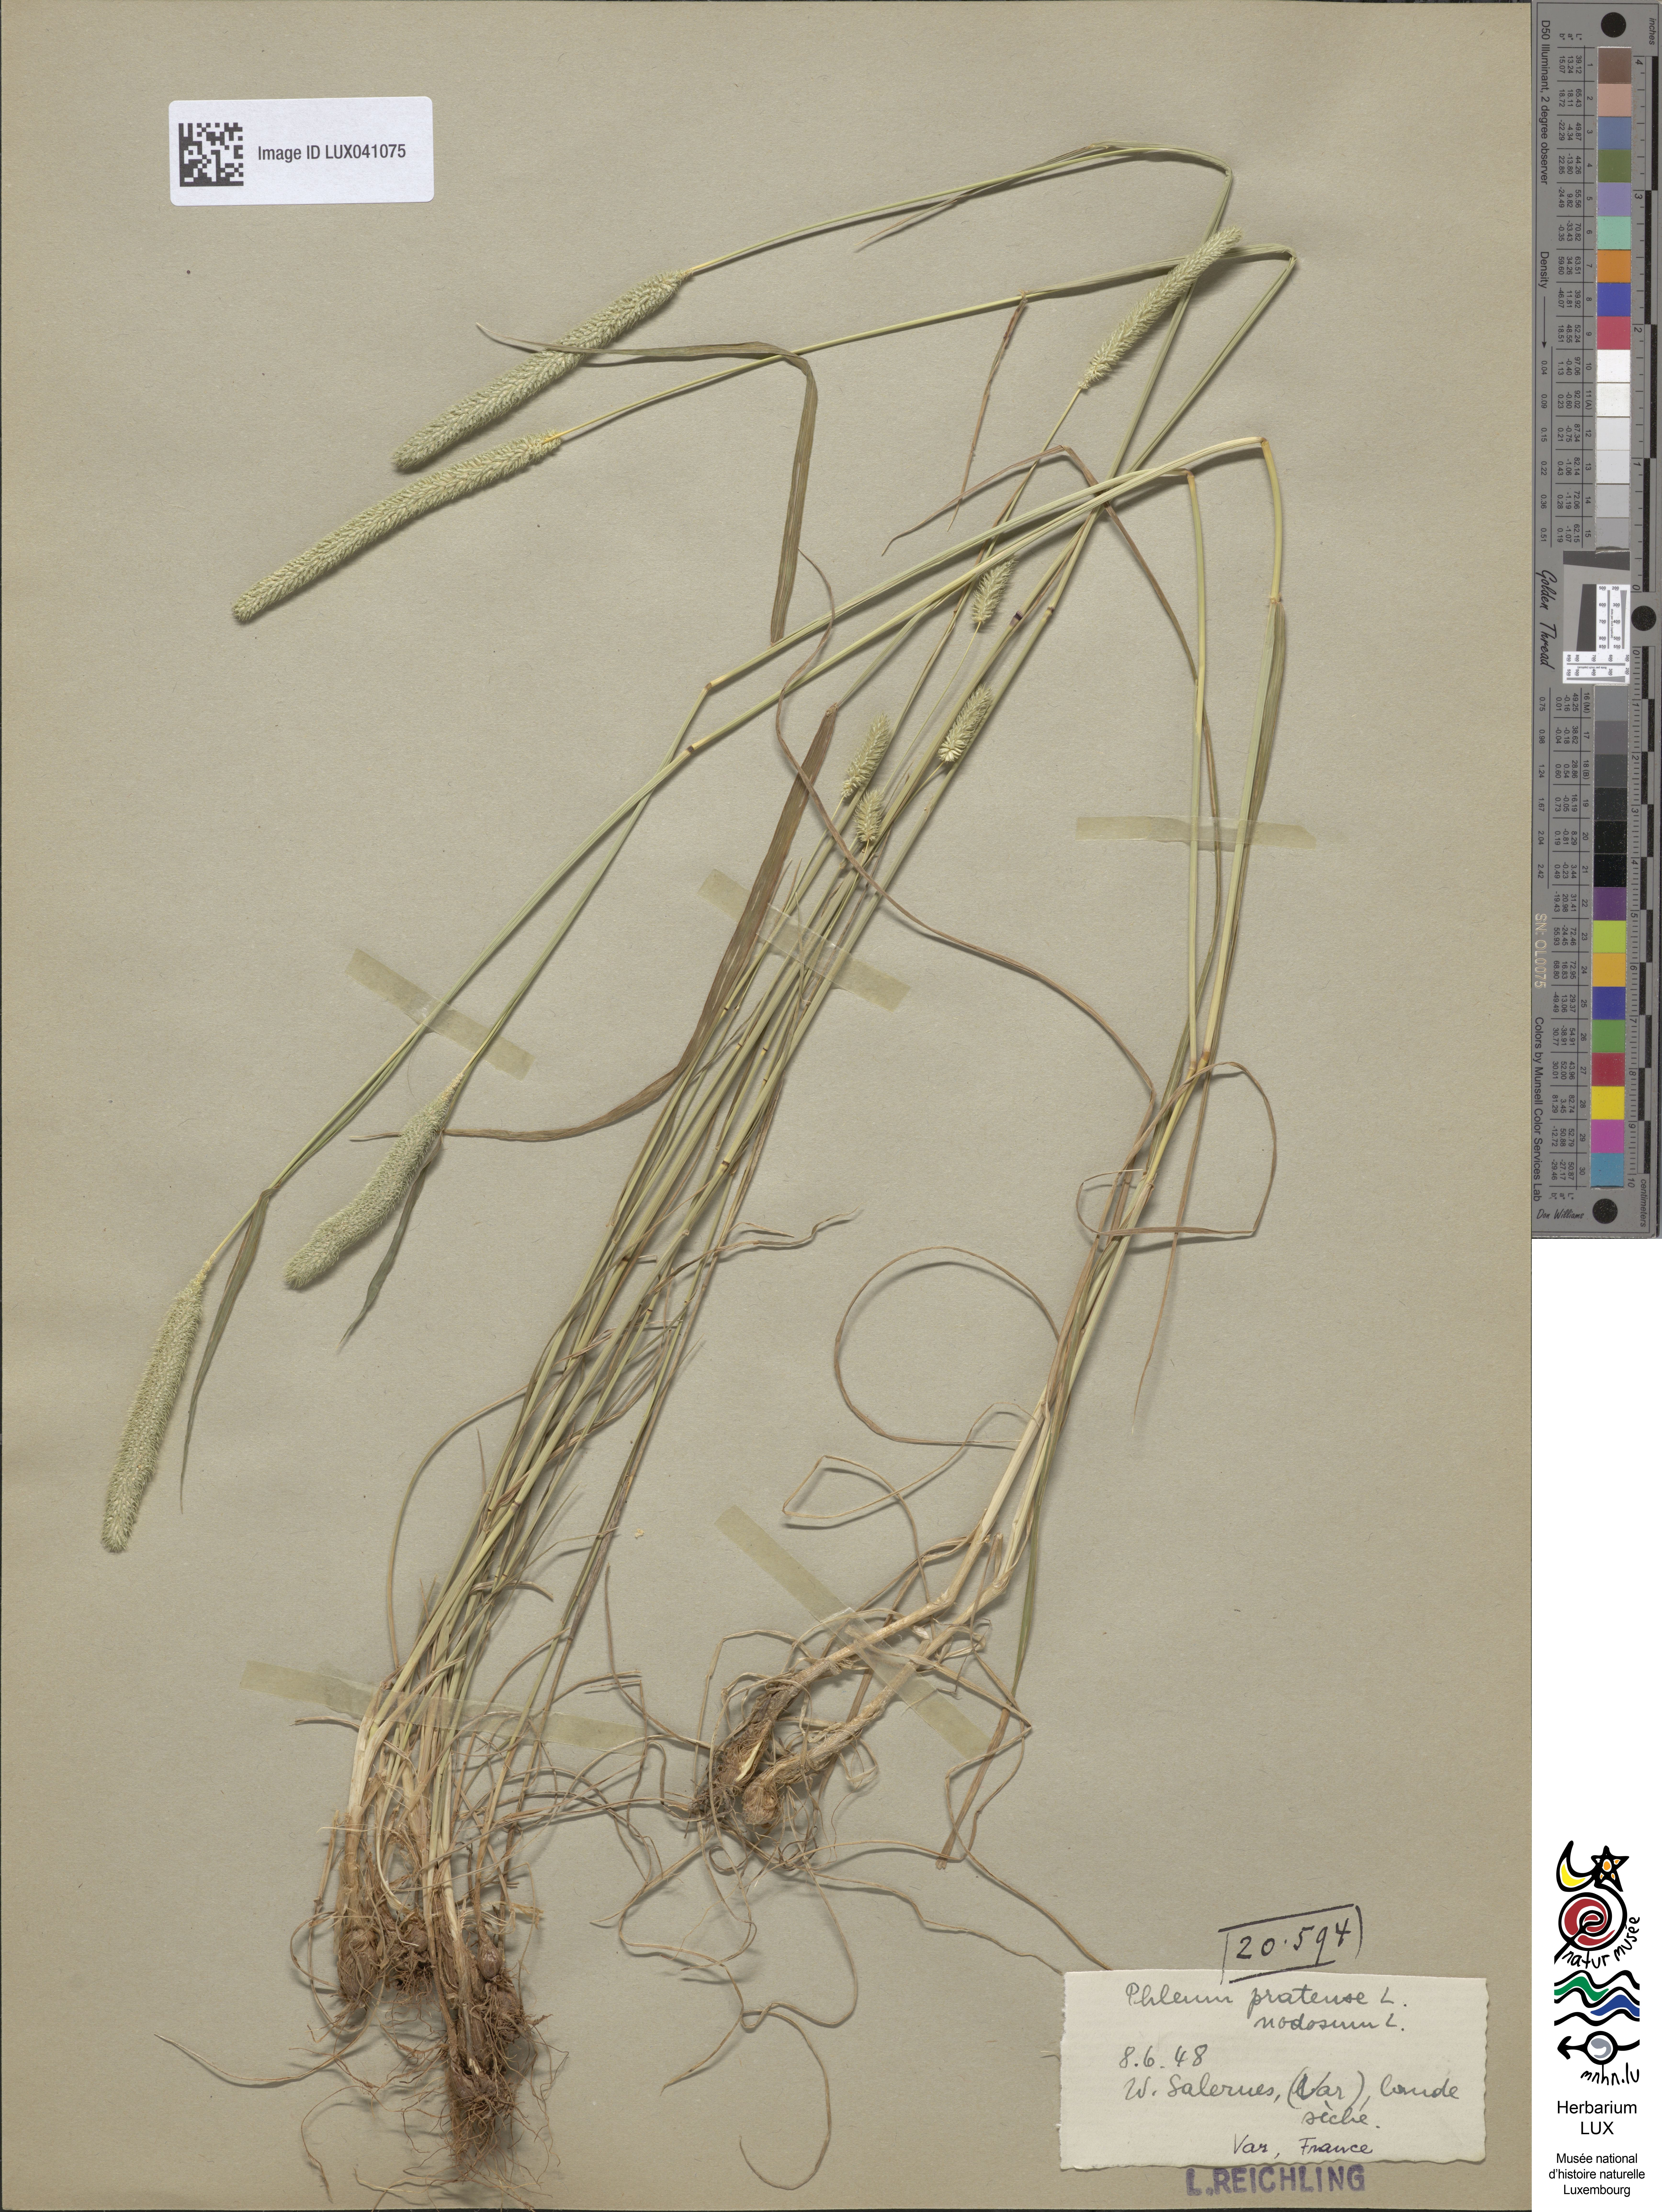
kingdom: Plantae
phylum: Tracheophyta
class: Liliopsida
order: Poales
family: Poaceae
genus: Phleum
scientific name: Phleum pratense
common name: Timothy grass
